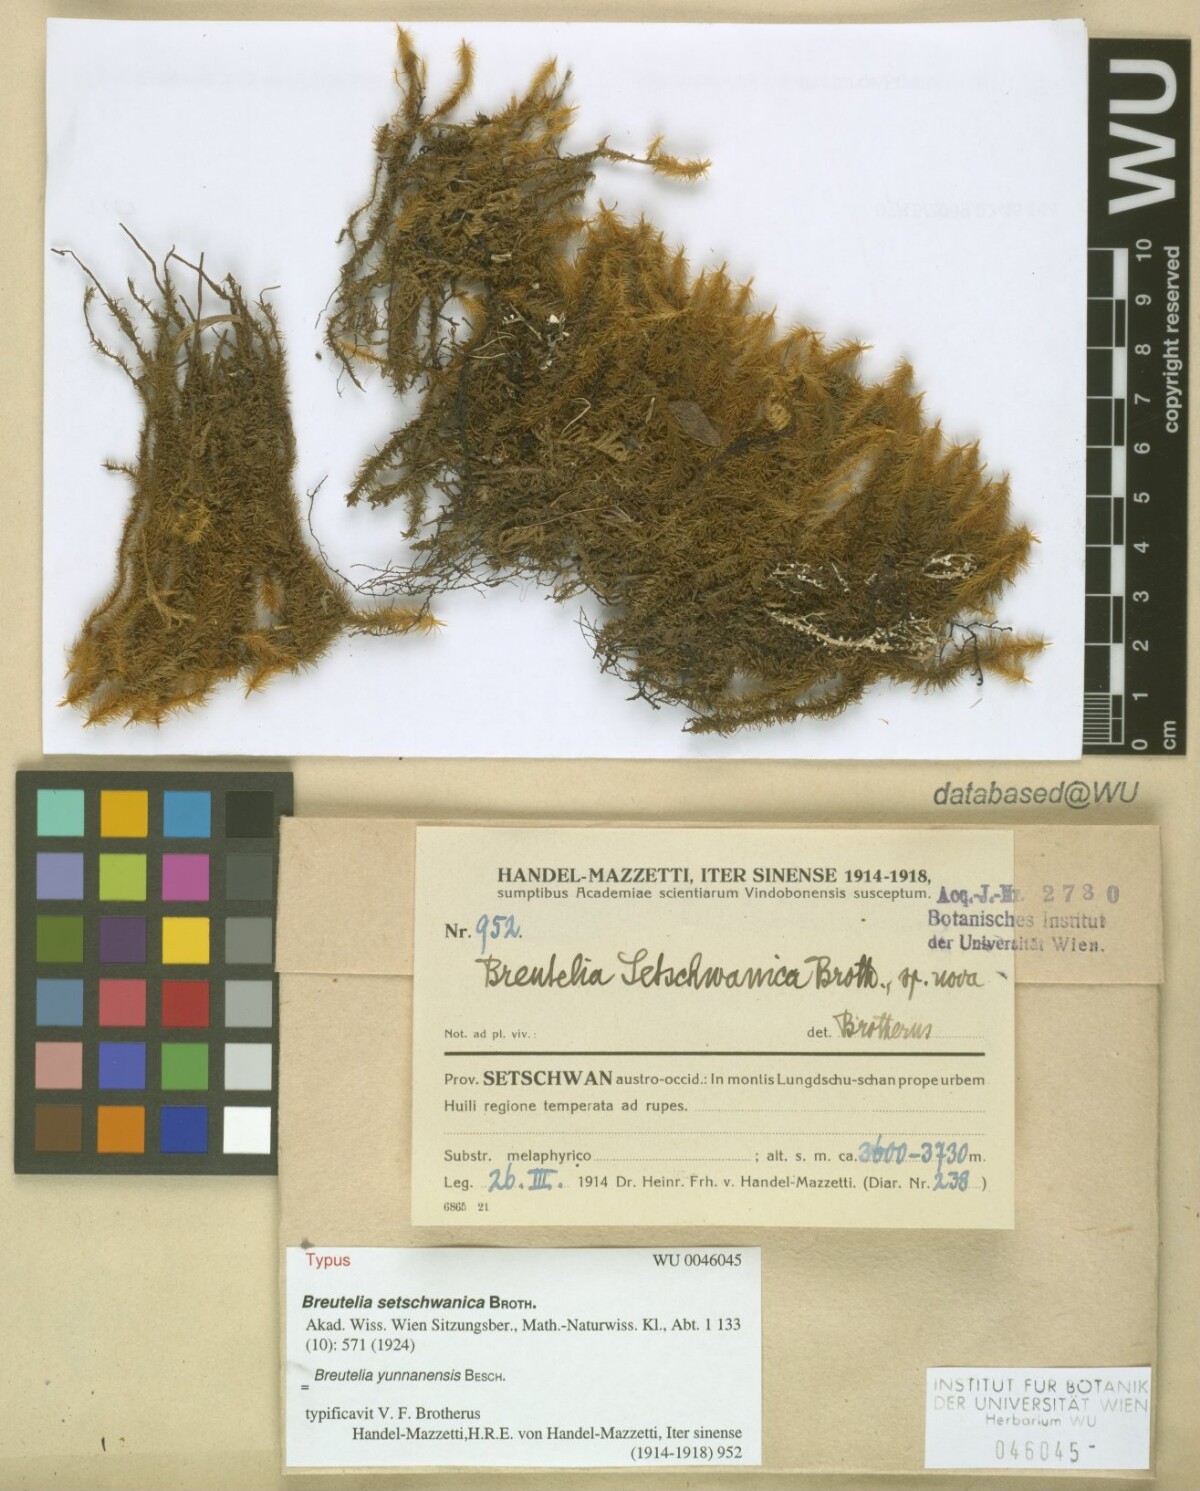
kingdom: Plantae
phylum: Bryophyta
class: Bryopsida
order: Bartramiales
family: Bartramiaceae
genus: Breutelia
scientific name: Breutelia yunnanensis
